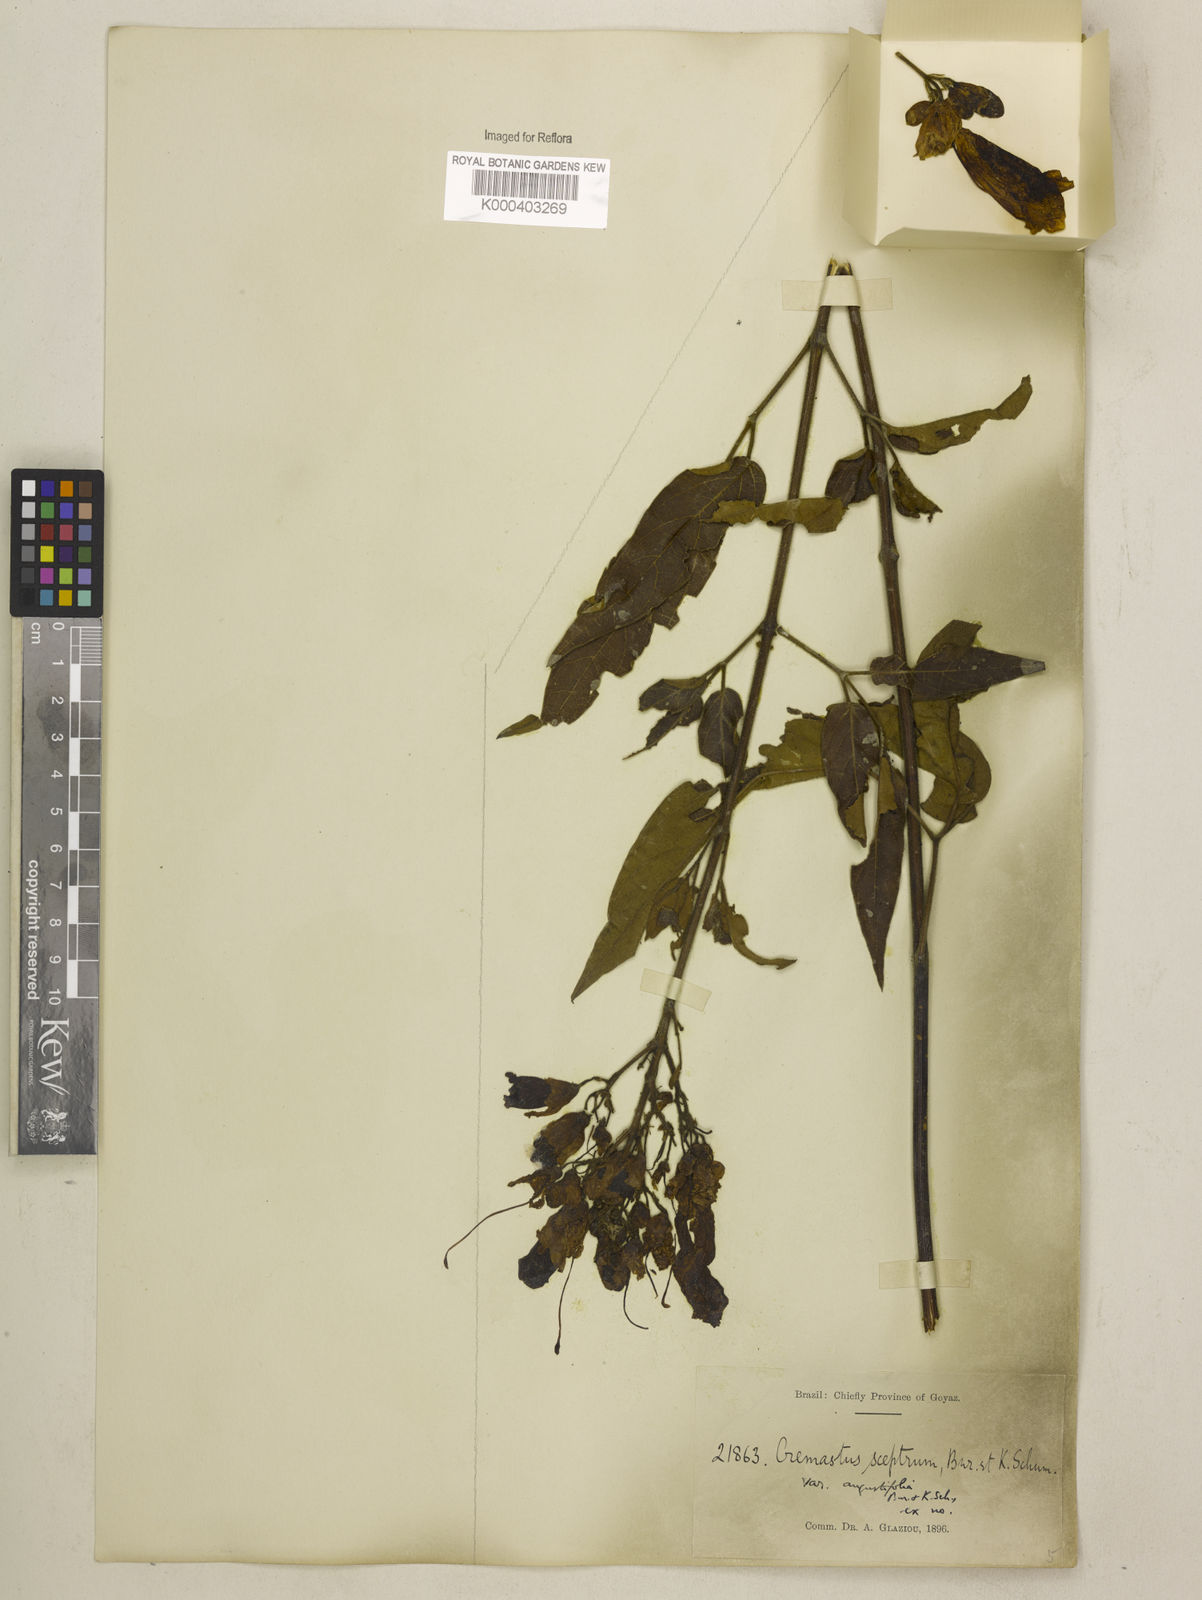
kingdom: Plantae
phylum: Tracheophyta
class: Magnoliopsida
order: Lamiales
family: Bignoniaceae
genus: Cuspidaria
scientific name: Cuspidaria sceptrum
